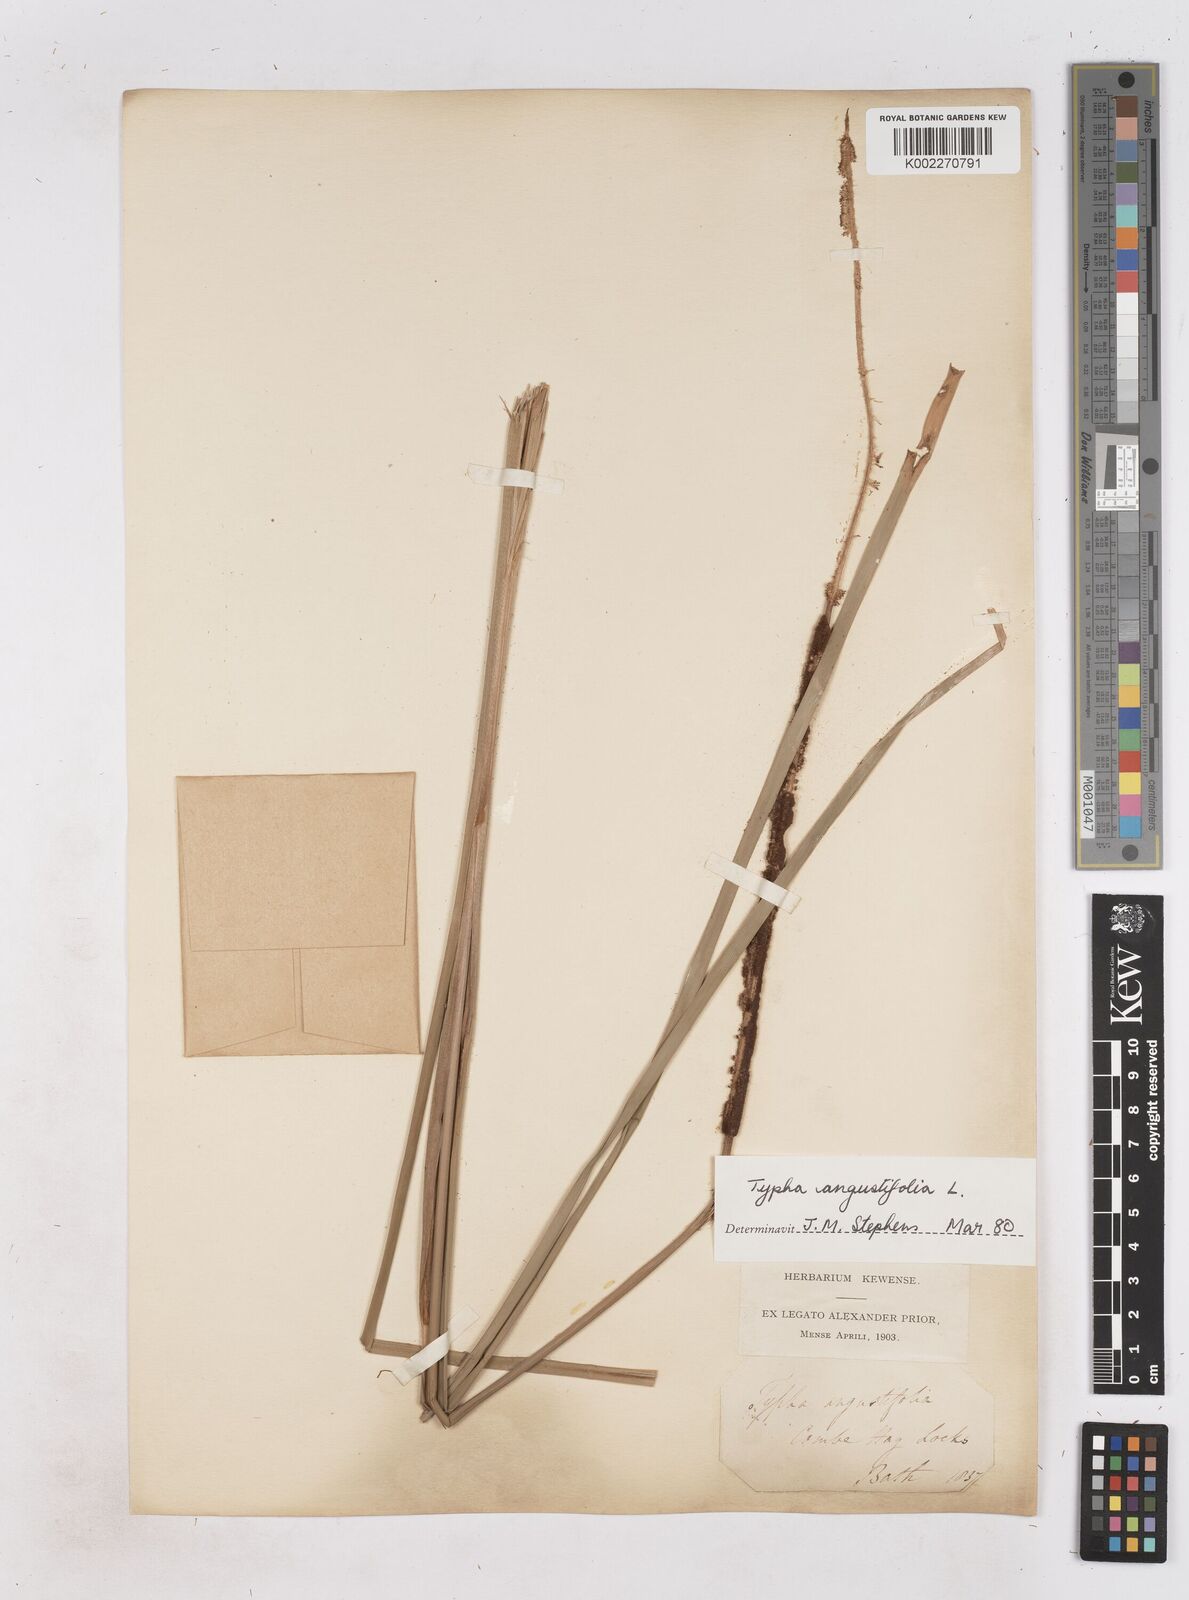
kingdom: Plantae
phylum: Tracheophyta
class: Liliopsida
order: Poales
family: Typhaceae
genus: Typha
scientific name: Typha angustifolia
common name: Lesser bulrush
